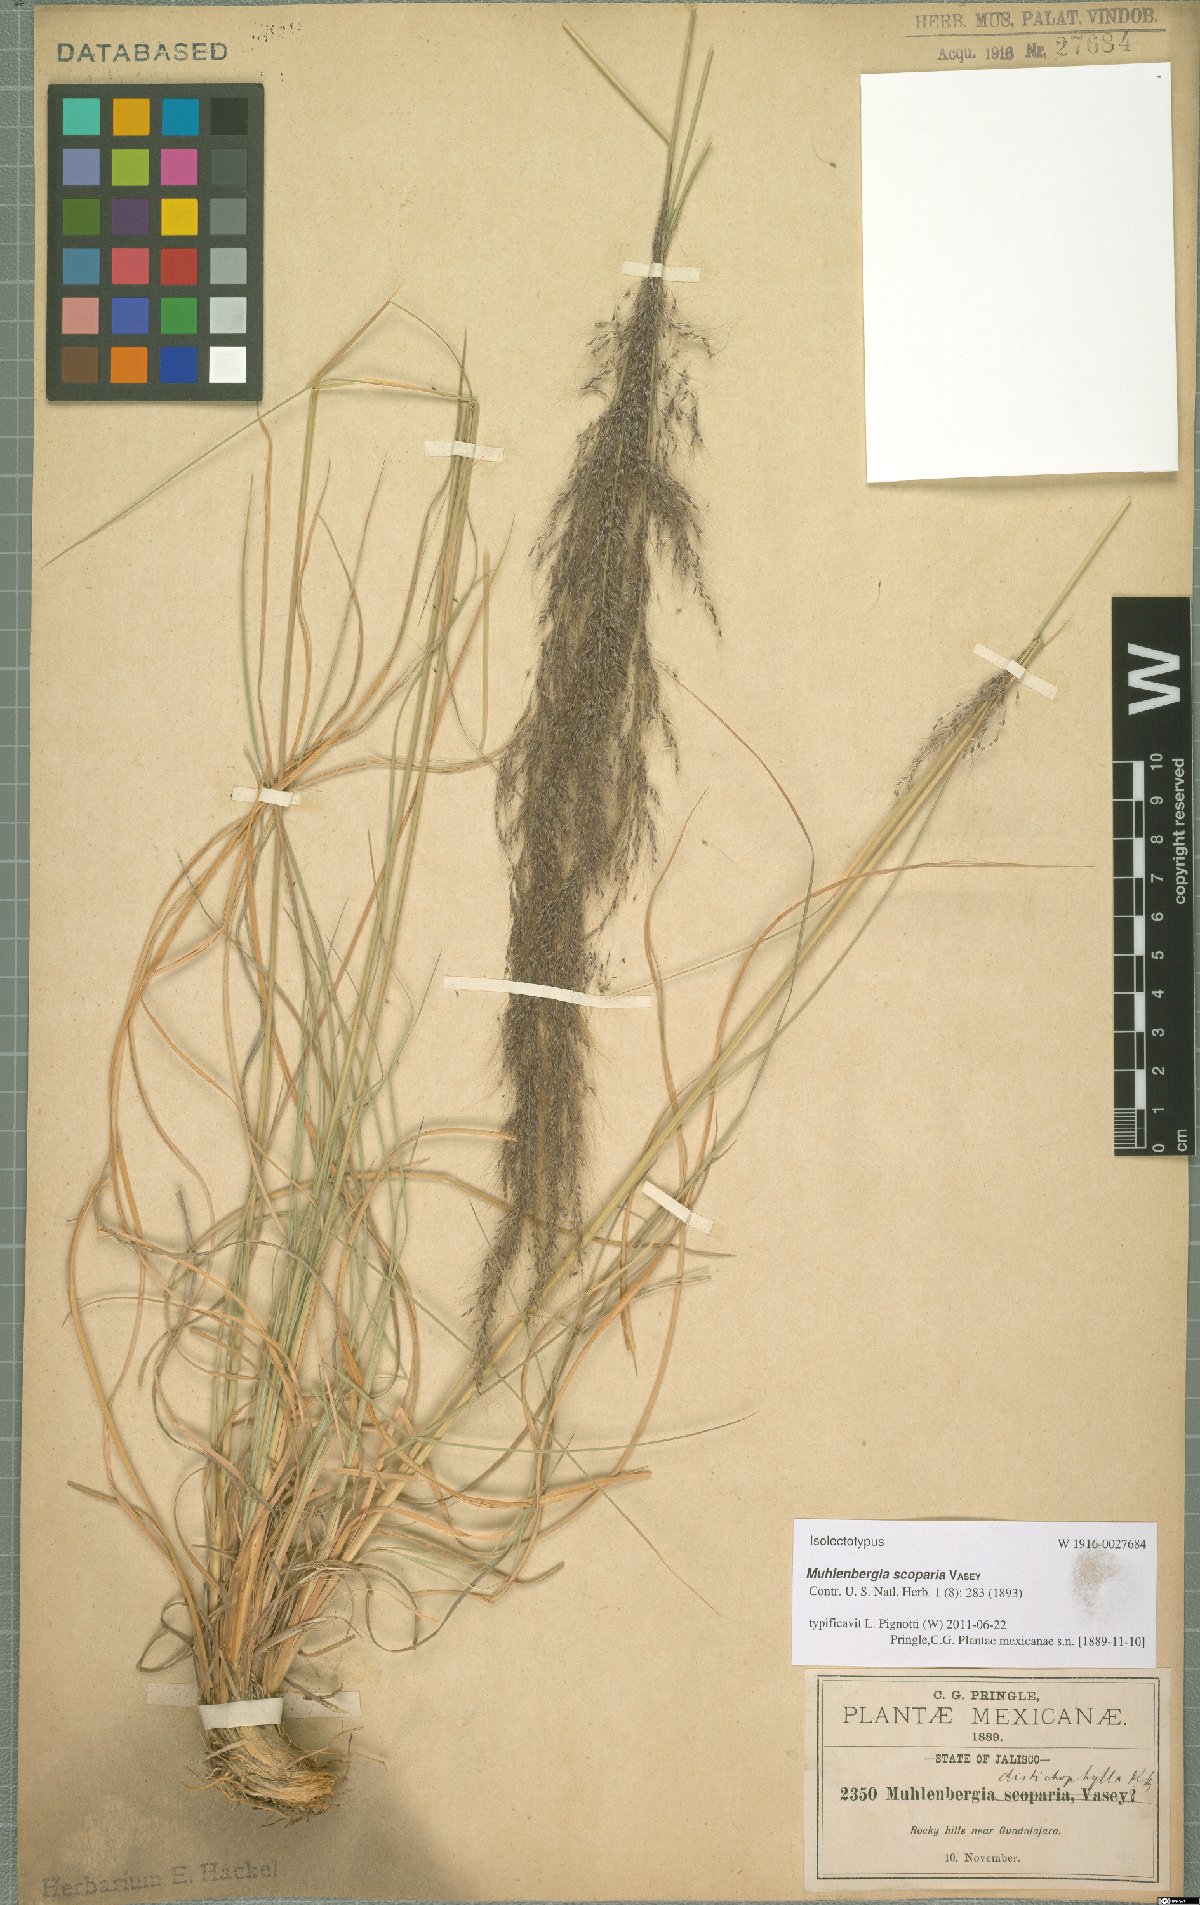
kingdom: Plantae
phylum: Tracheophyta
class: Liliopsida
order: Poales
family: Poaceae
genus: Muhlenbergia
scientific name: Muhlenbergia scoparia
